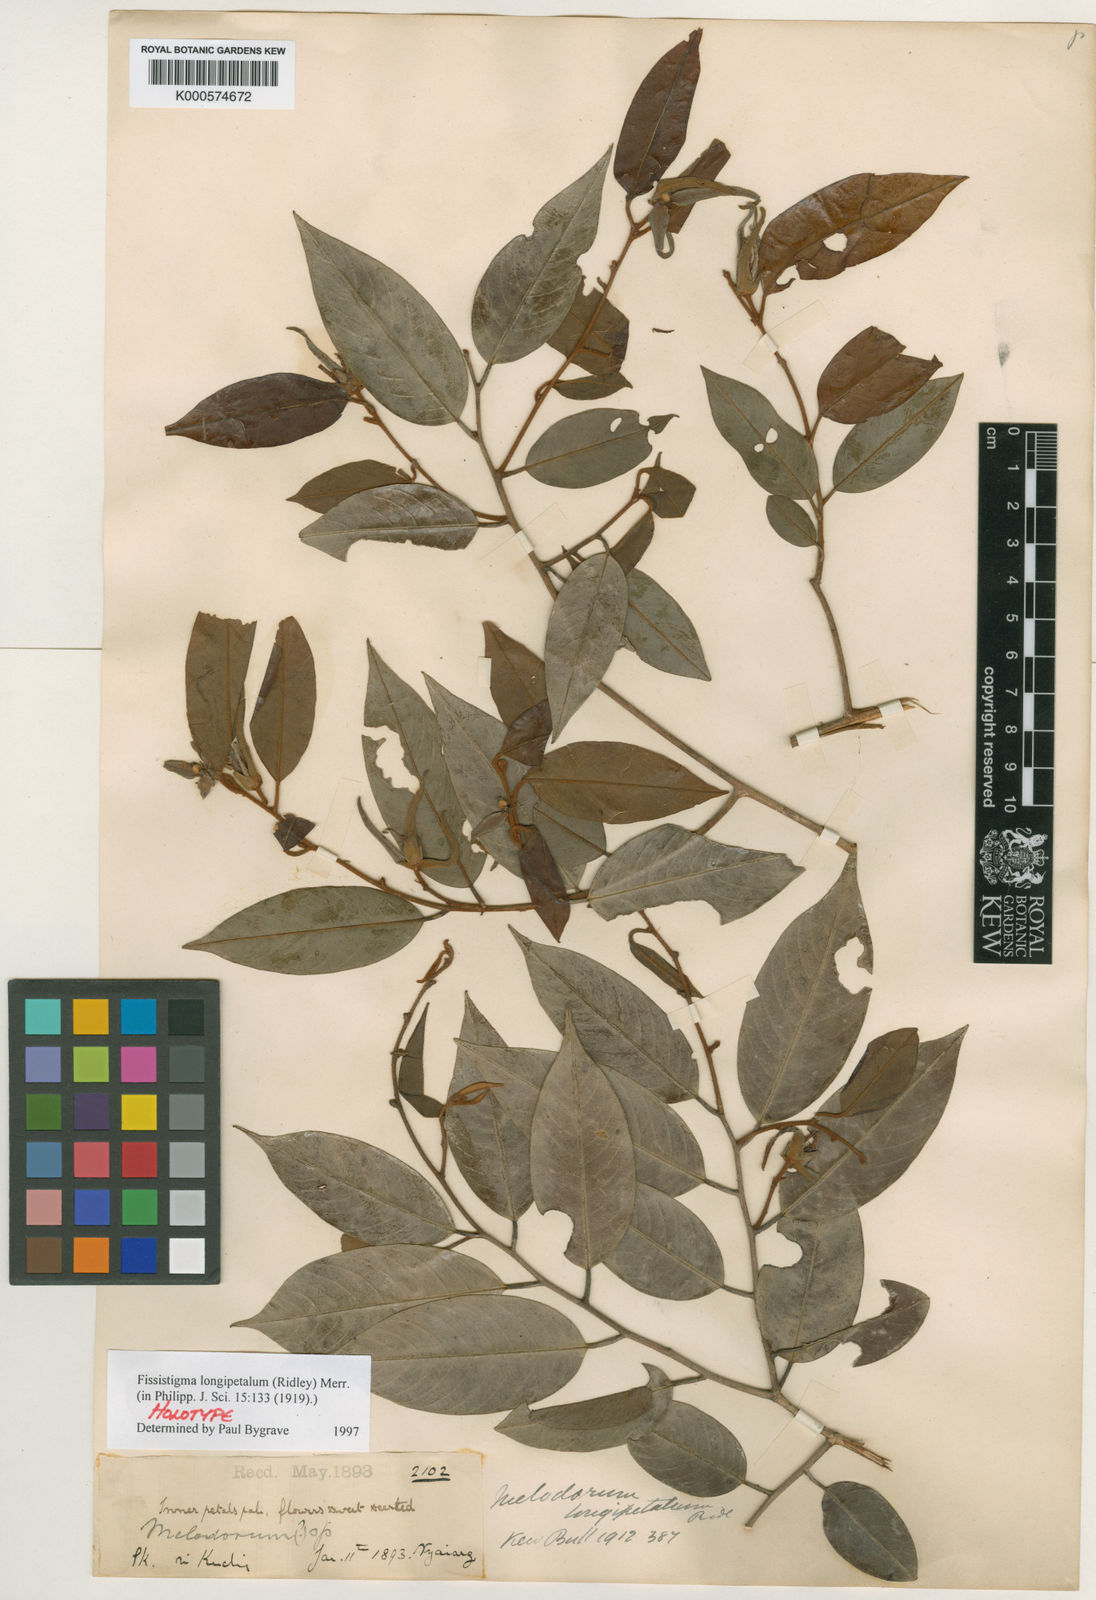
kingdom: Plantae
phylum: Tracheophyta
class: Magnoliopsida
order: Magnoliales
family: Annonaceae
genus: Fissistigma
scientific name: Fissistigma longipetalum
